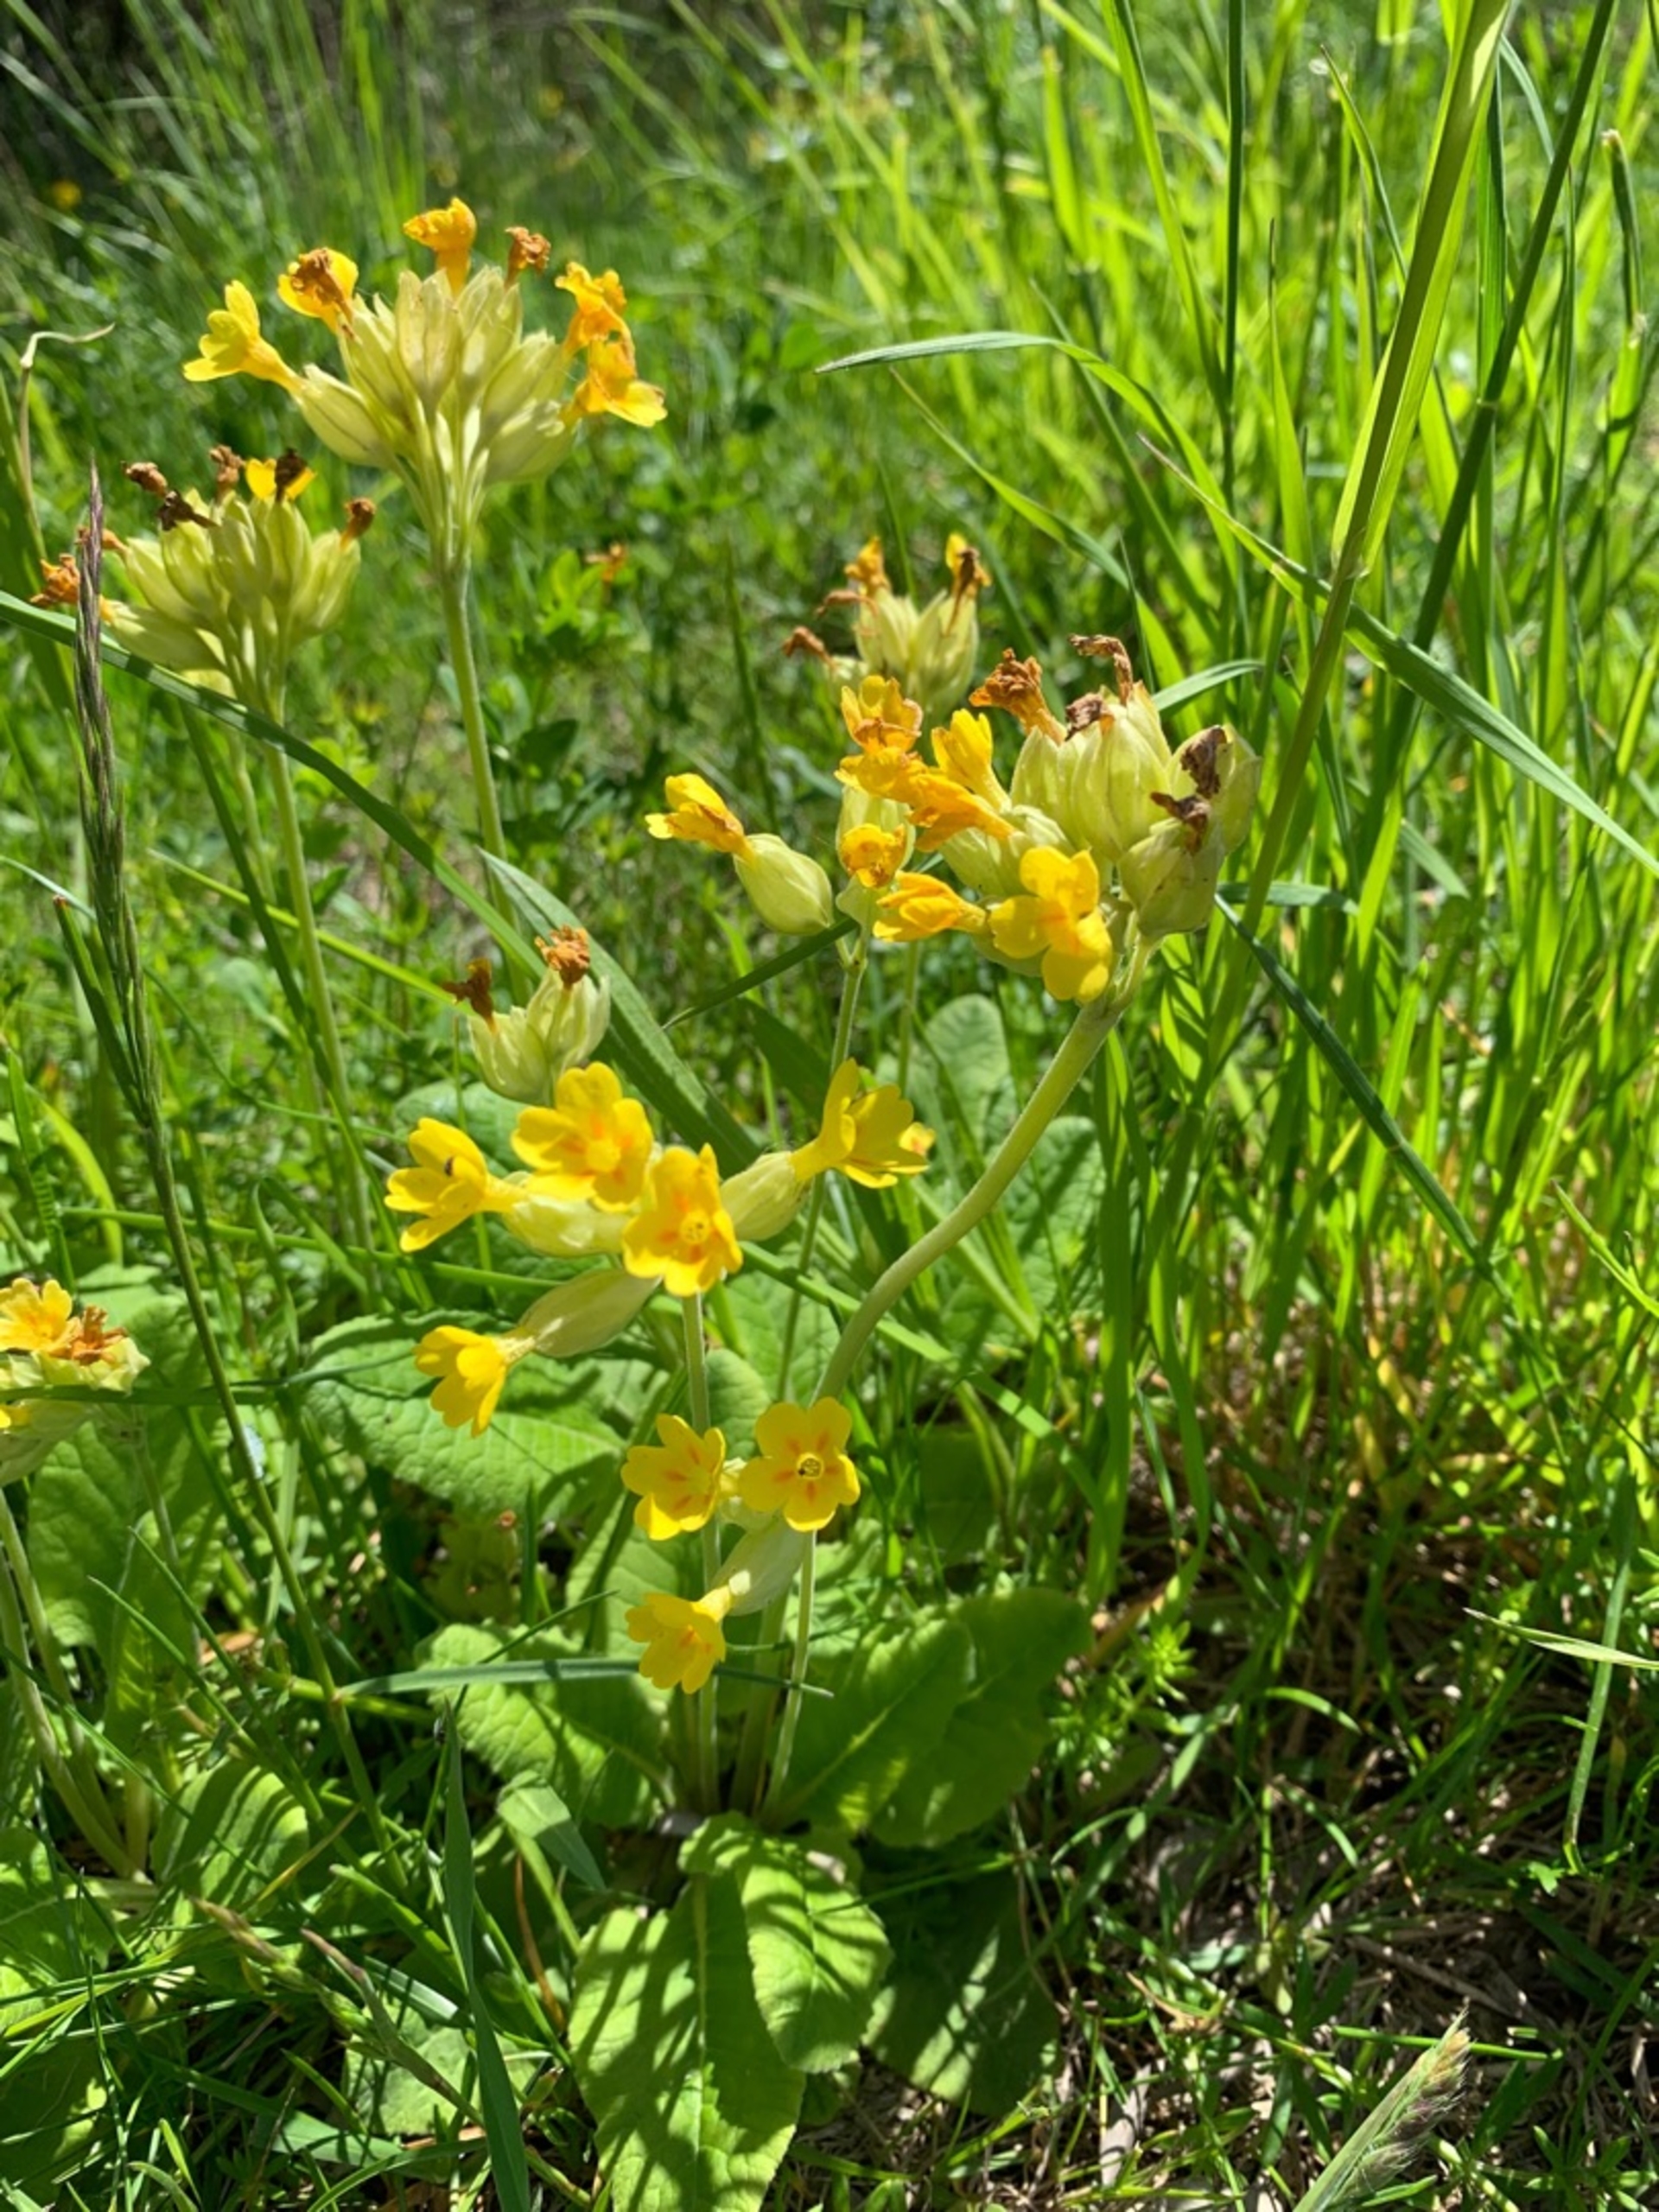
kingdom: Plantae
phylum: Tracheophyta
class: Magnoliopsida
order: Ericales
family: Primulaceae
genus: Primula
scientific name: Primula veris
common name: Hulkravet kodriver
